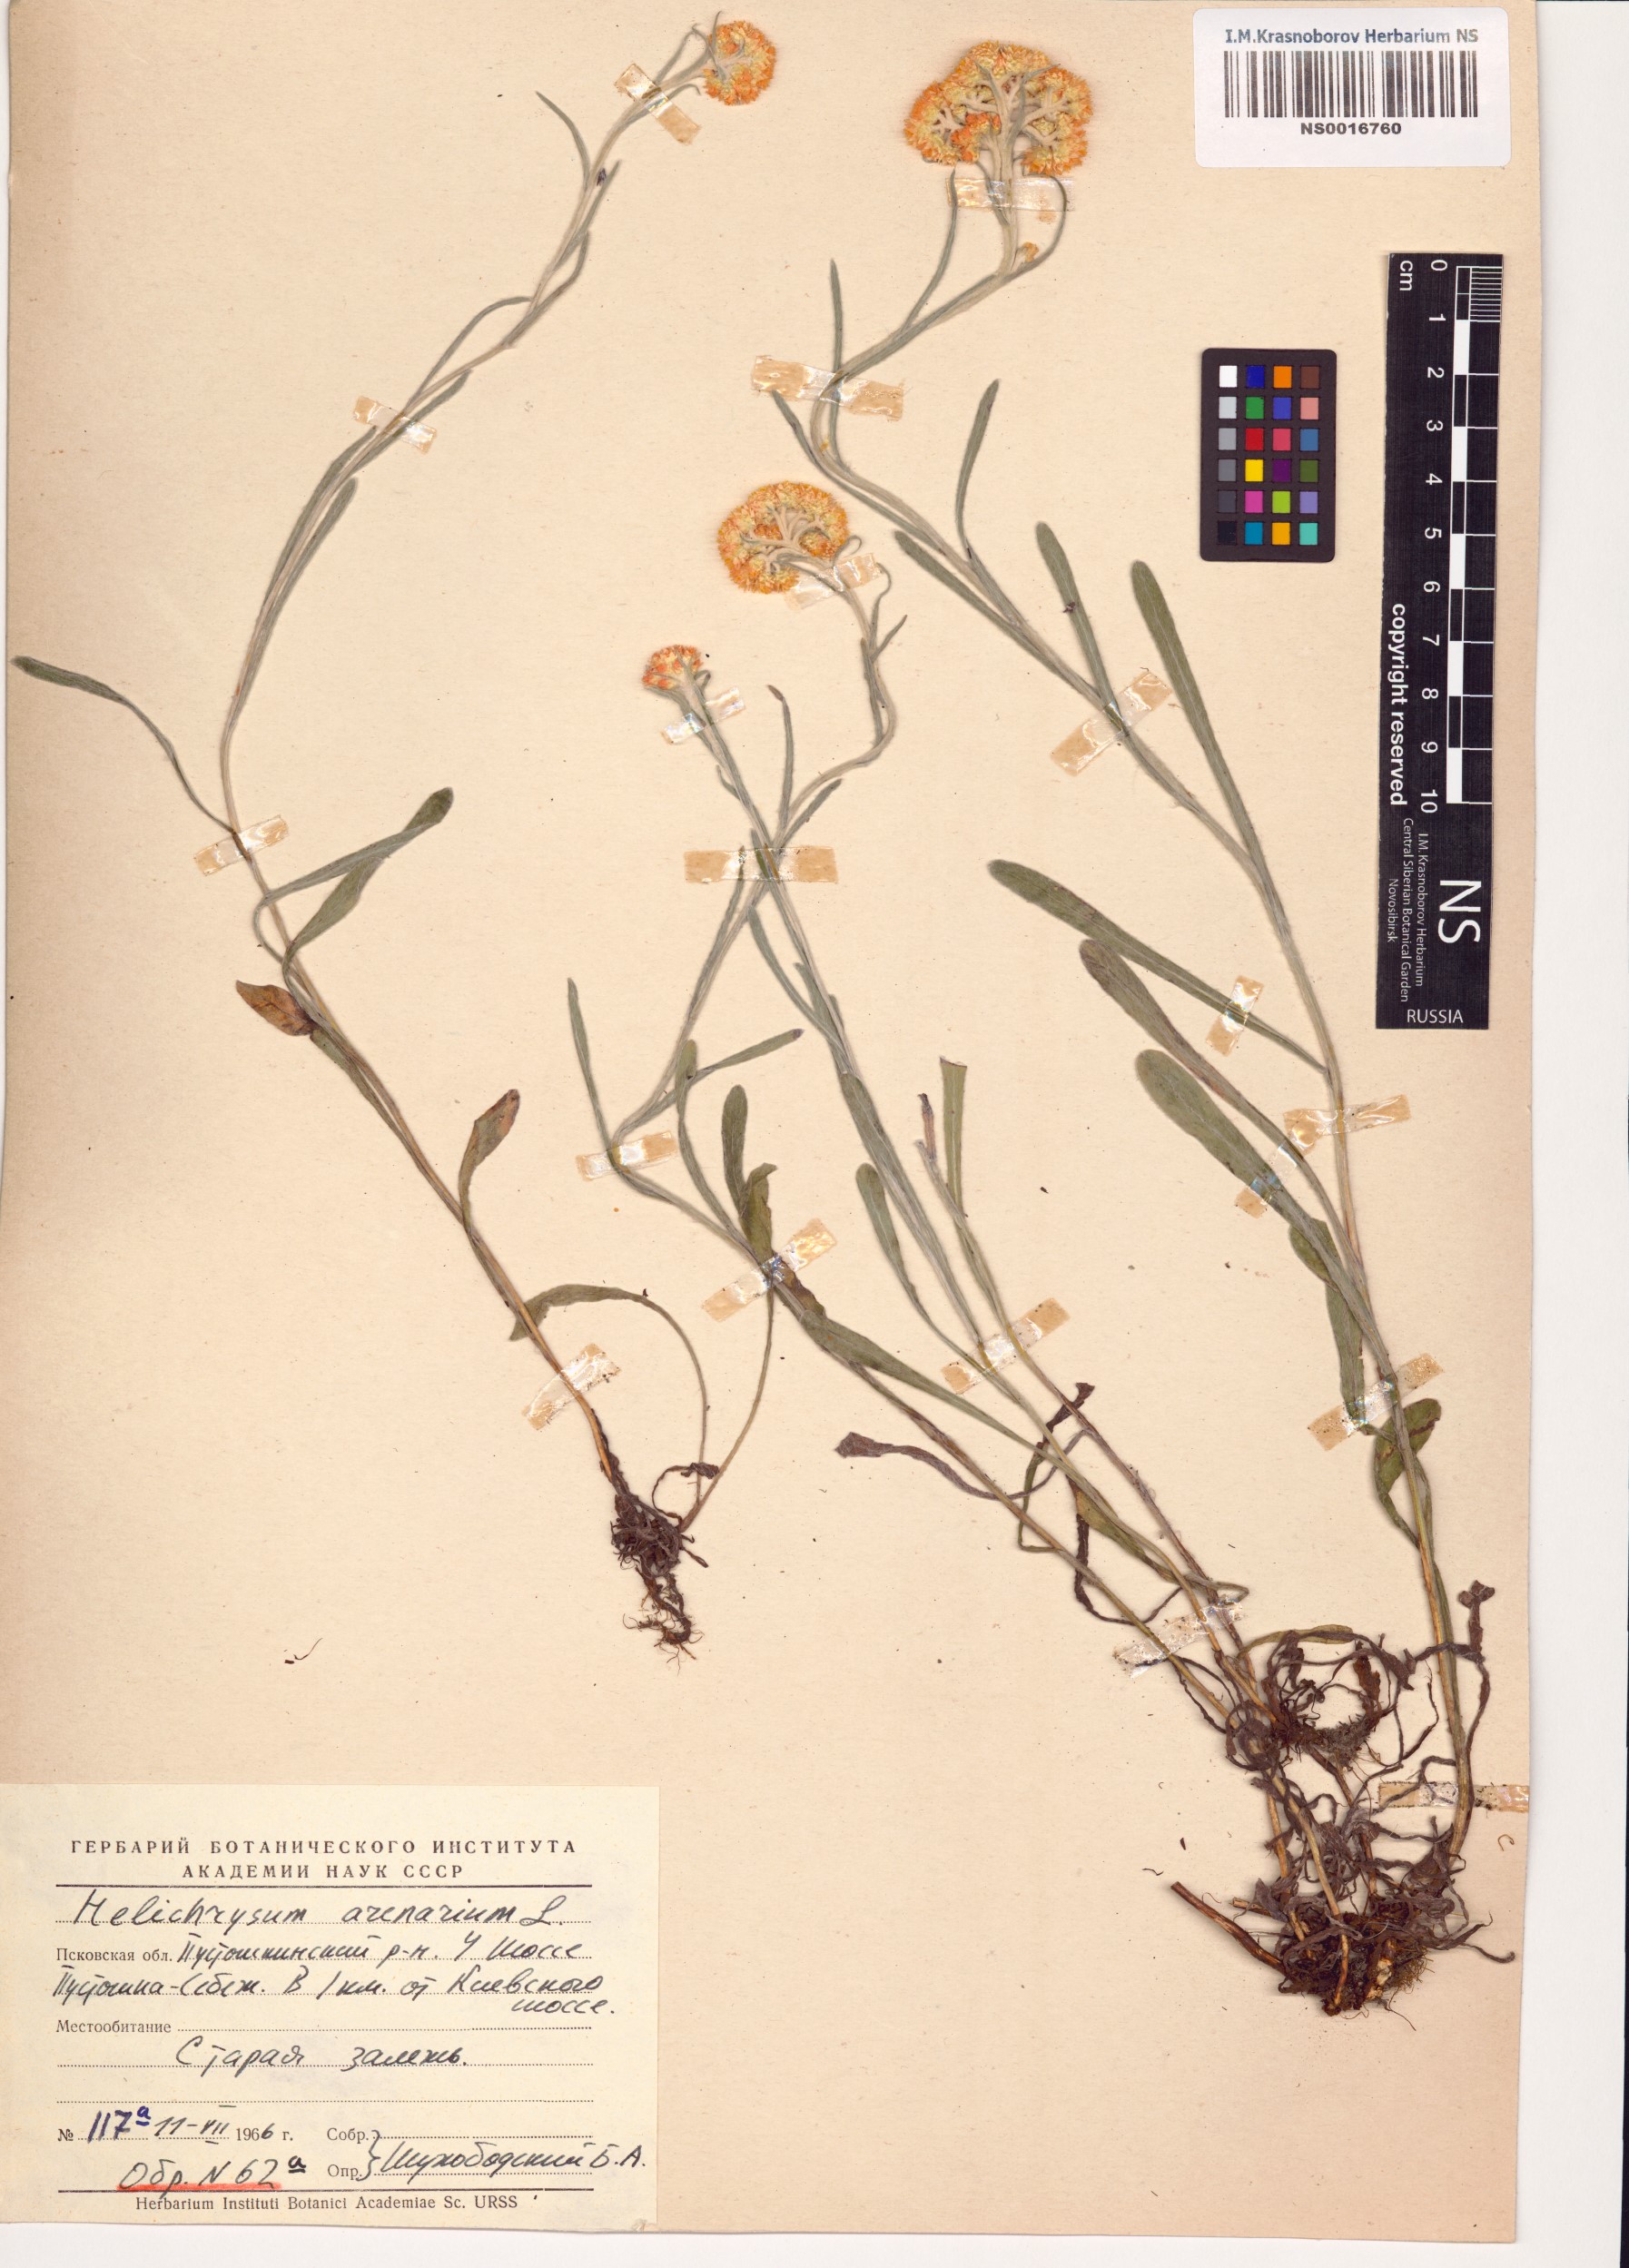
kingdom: Plantae
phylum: Tracheophyta
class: Magnoliopsida
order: Asterales
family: Asteraceae
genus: Helichrysum
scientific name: Helichrysum arenarium
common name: Strawflower
